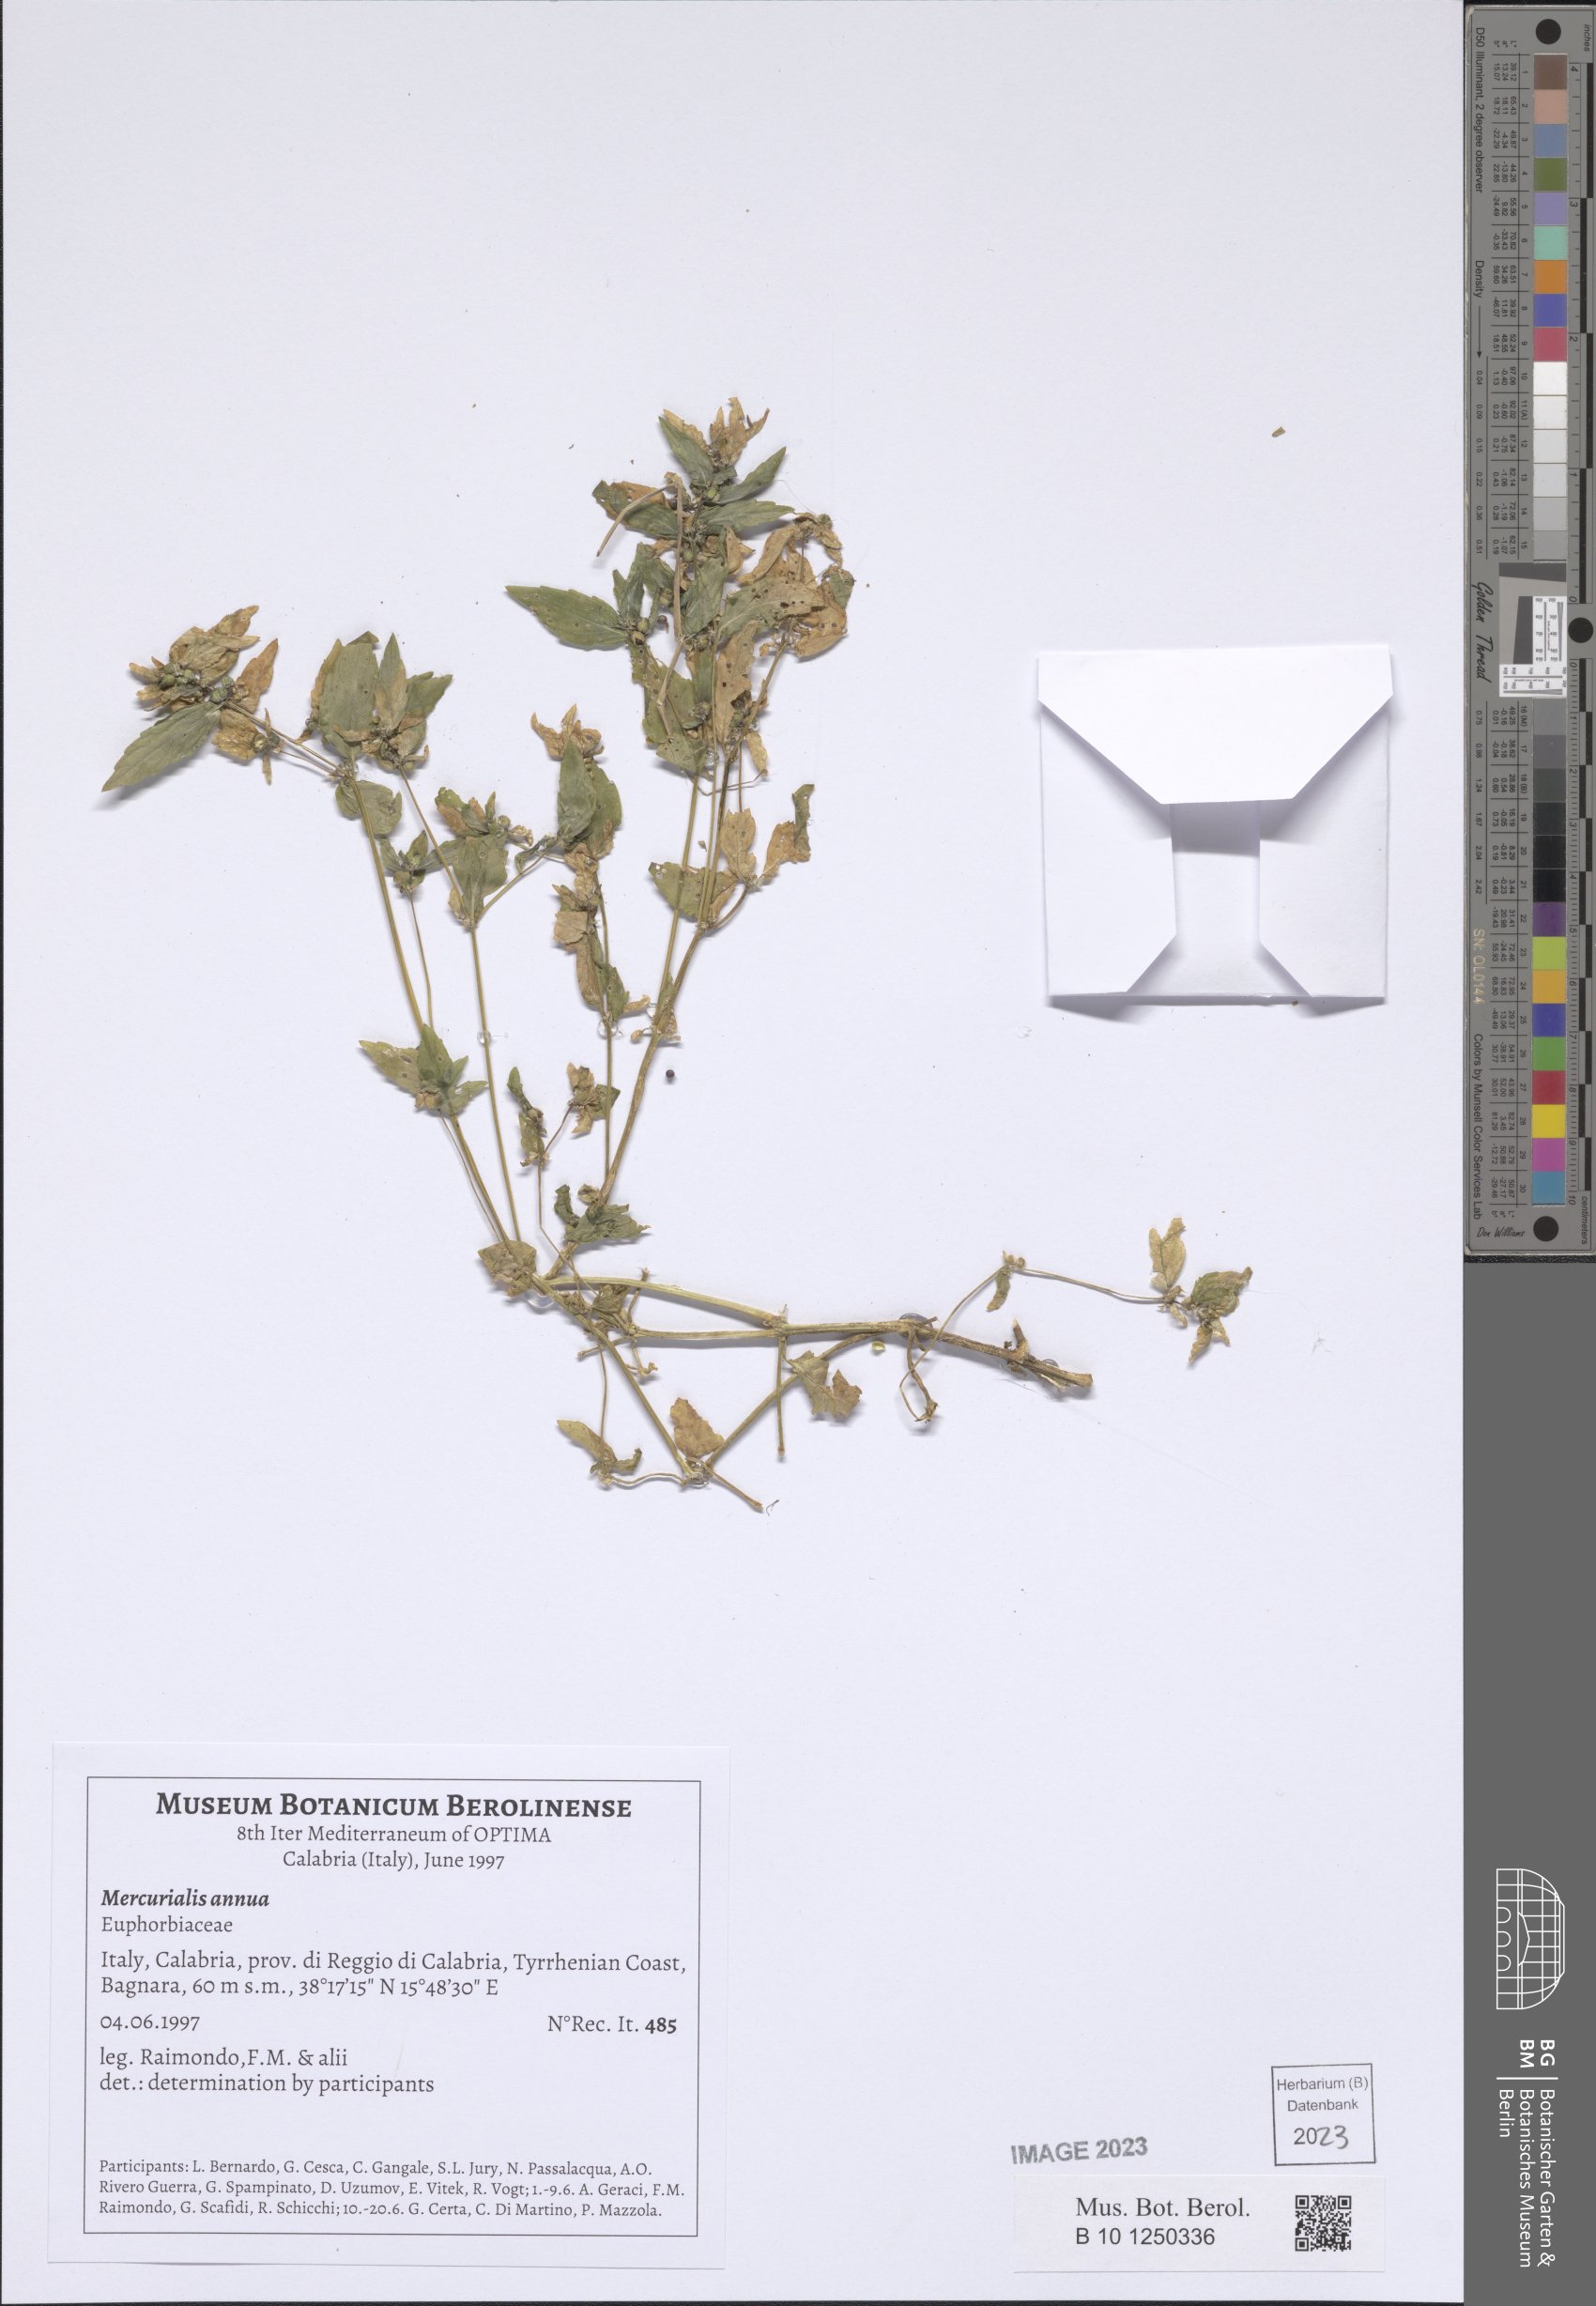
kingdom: Plantae
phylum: Tracheophyta
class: Magnoliopsida
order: Malpighiales
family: Euphorbiaceae
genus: Mercurialis
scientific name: Mercurialis annua
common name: Annual mercury
